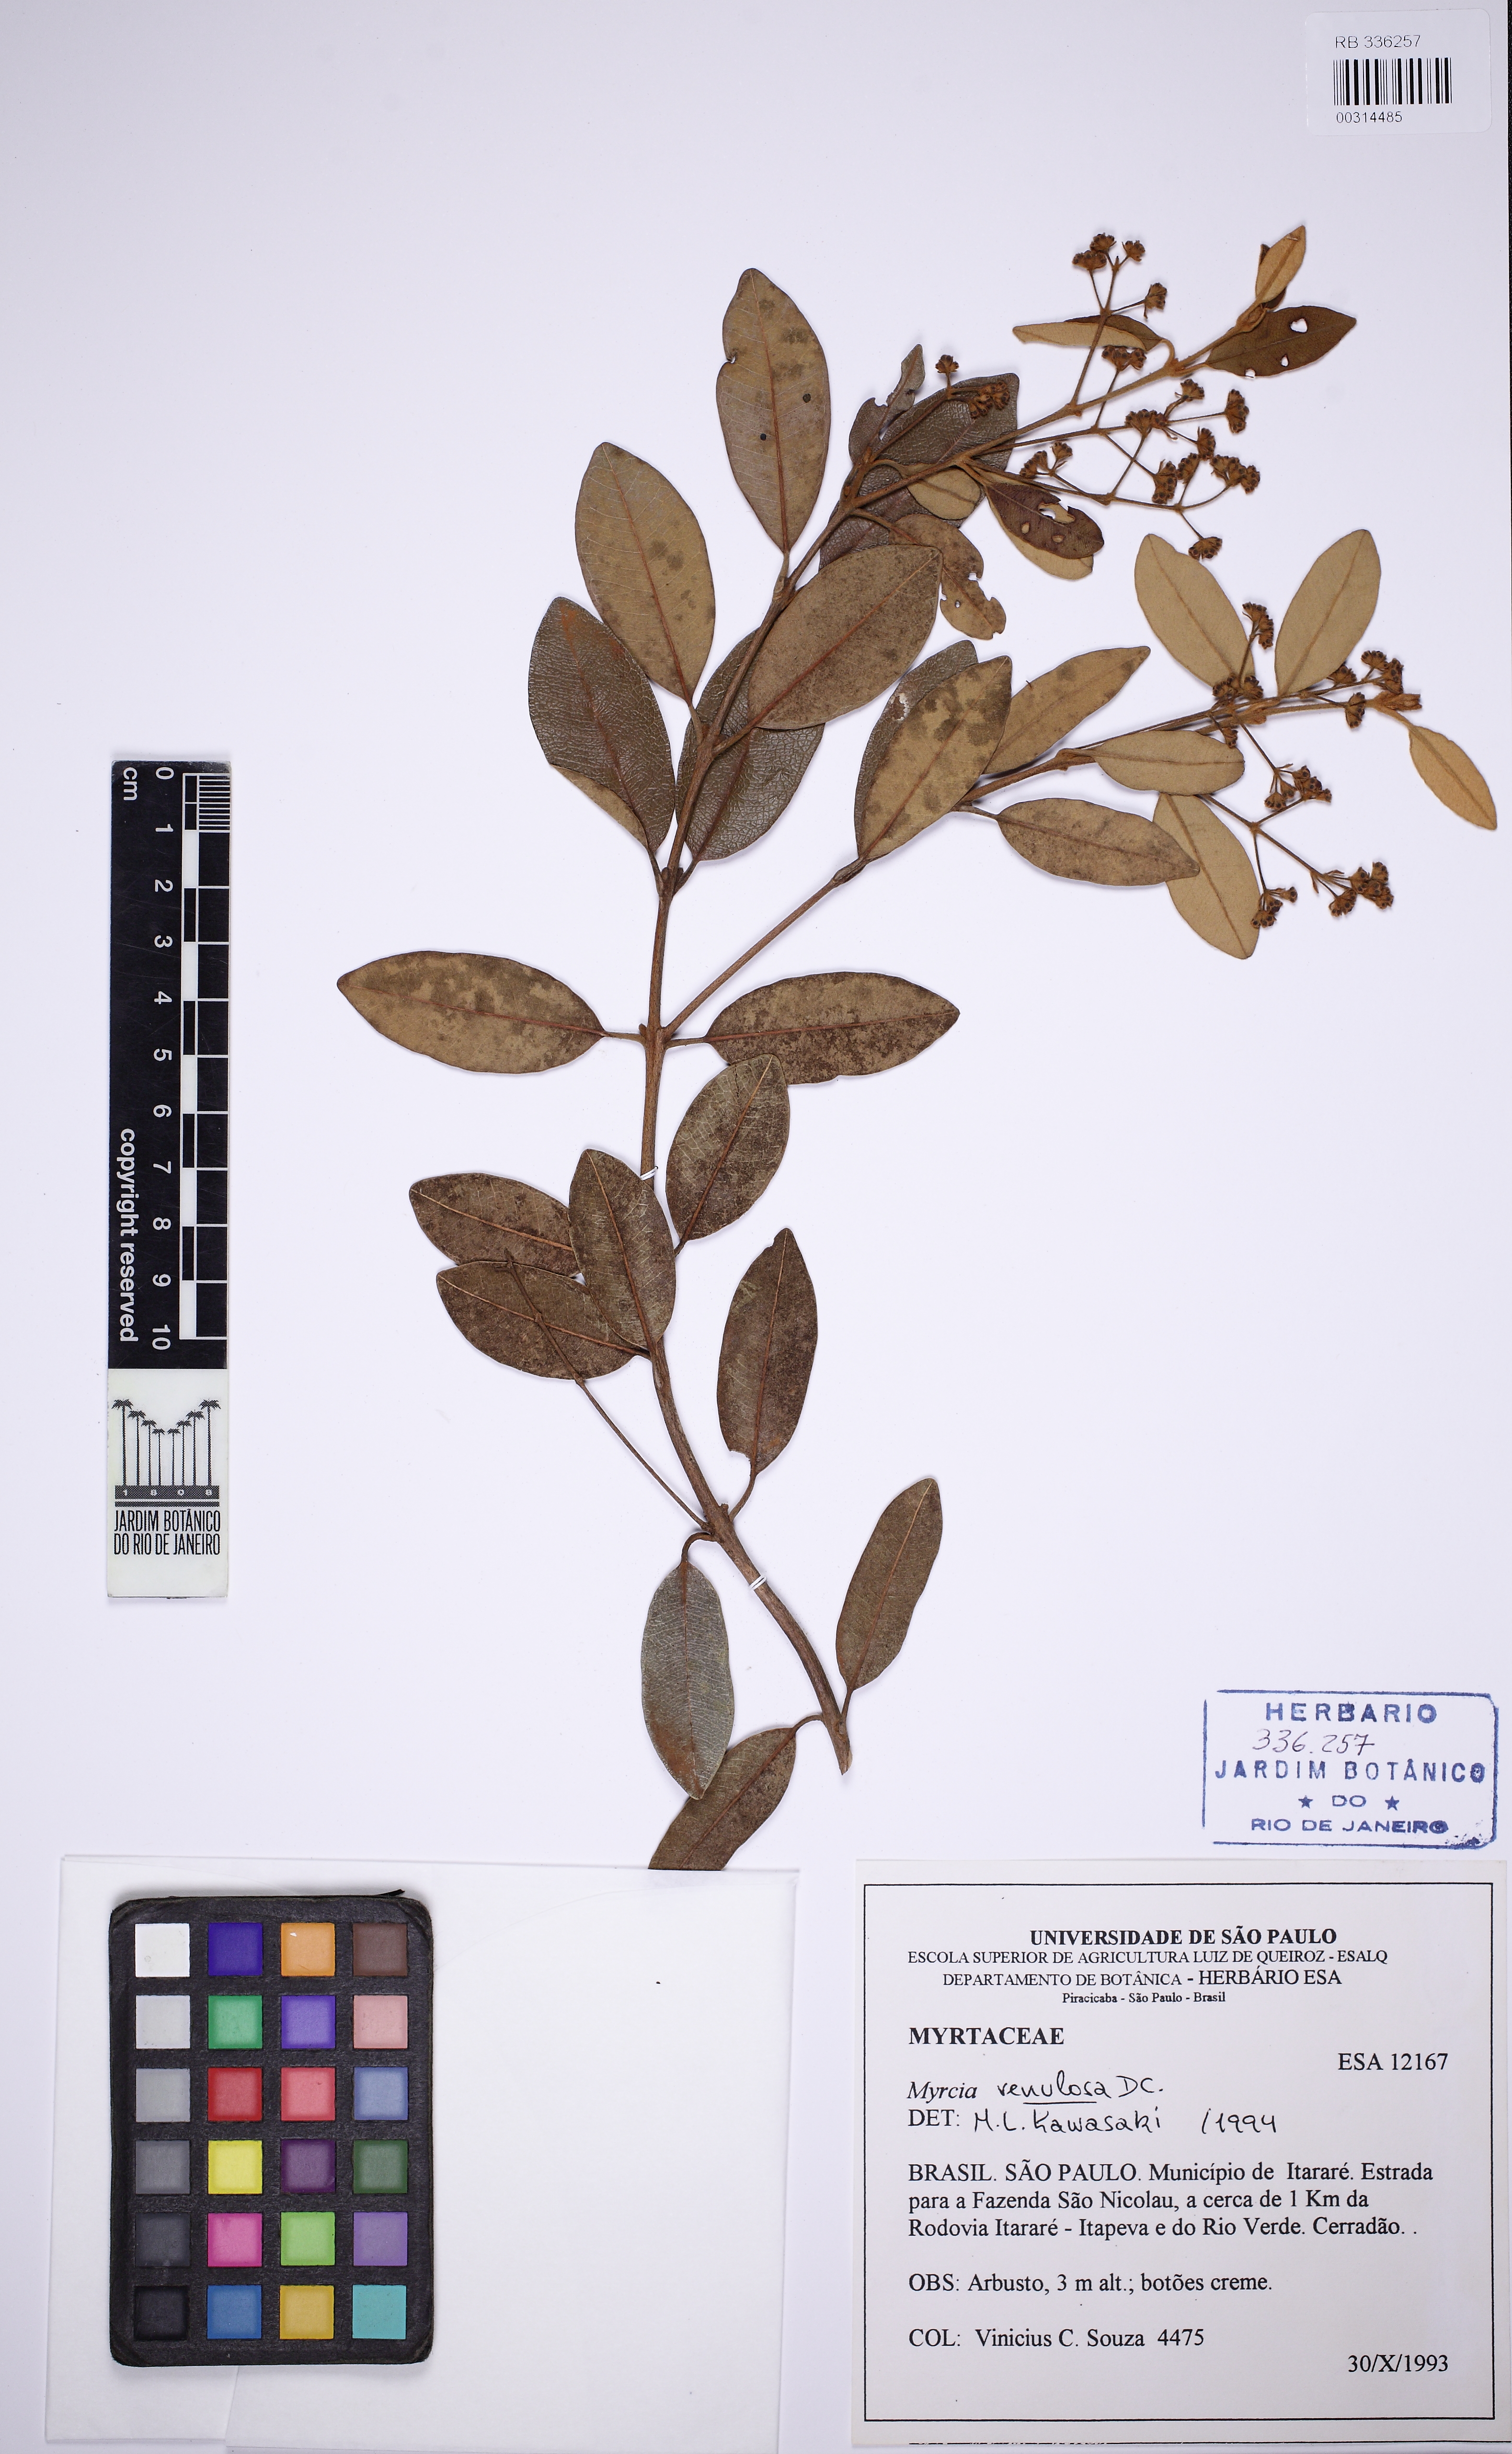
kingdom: Plantae
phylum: Tracheophyta
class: Magnoliopsida
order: Myrtales
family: Myrtaceae
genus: Myrcia
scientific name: Myrcia venulosa
